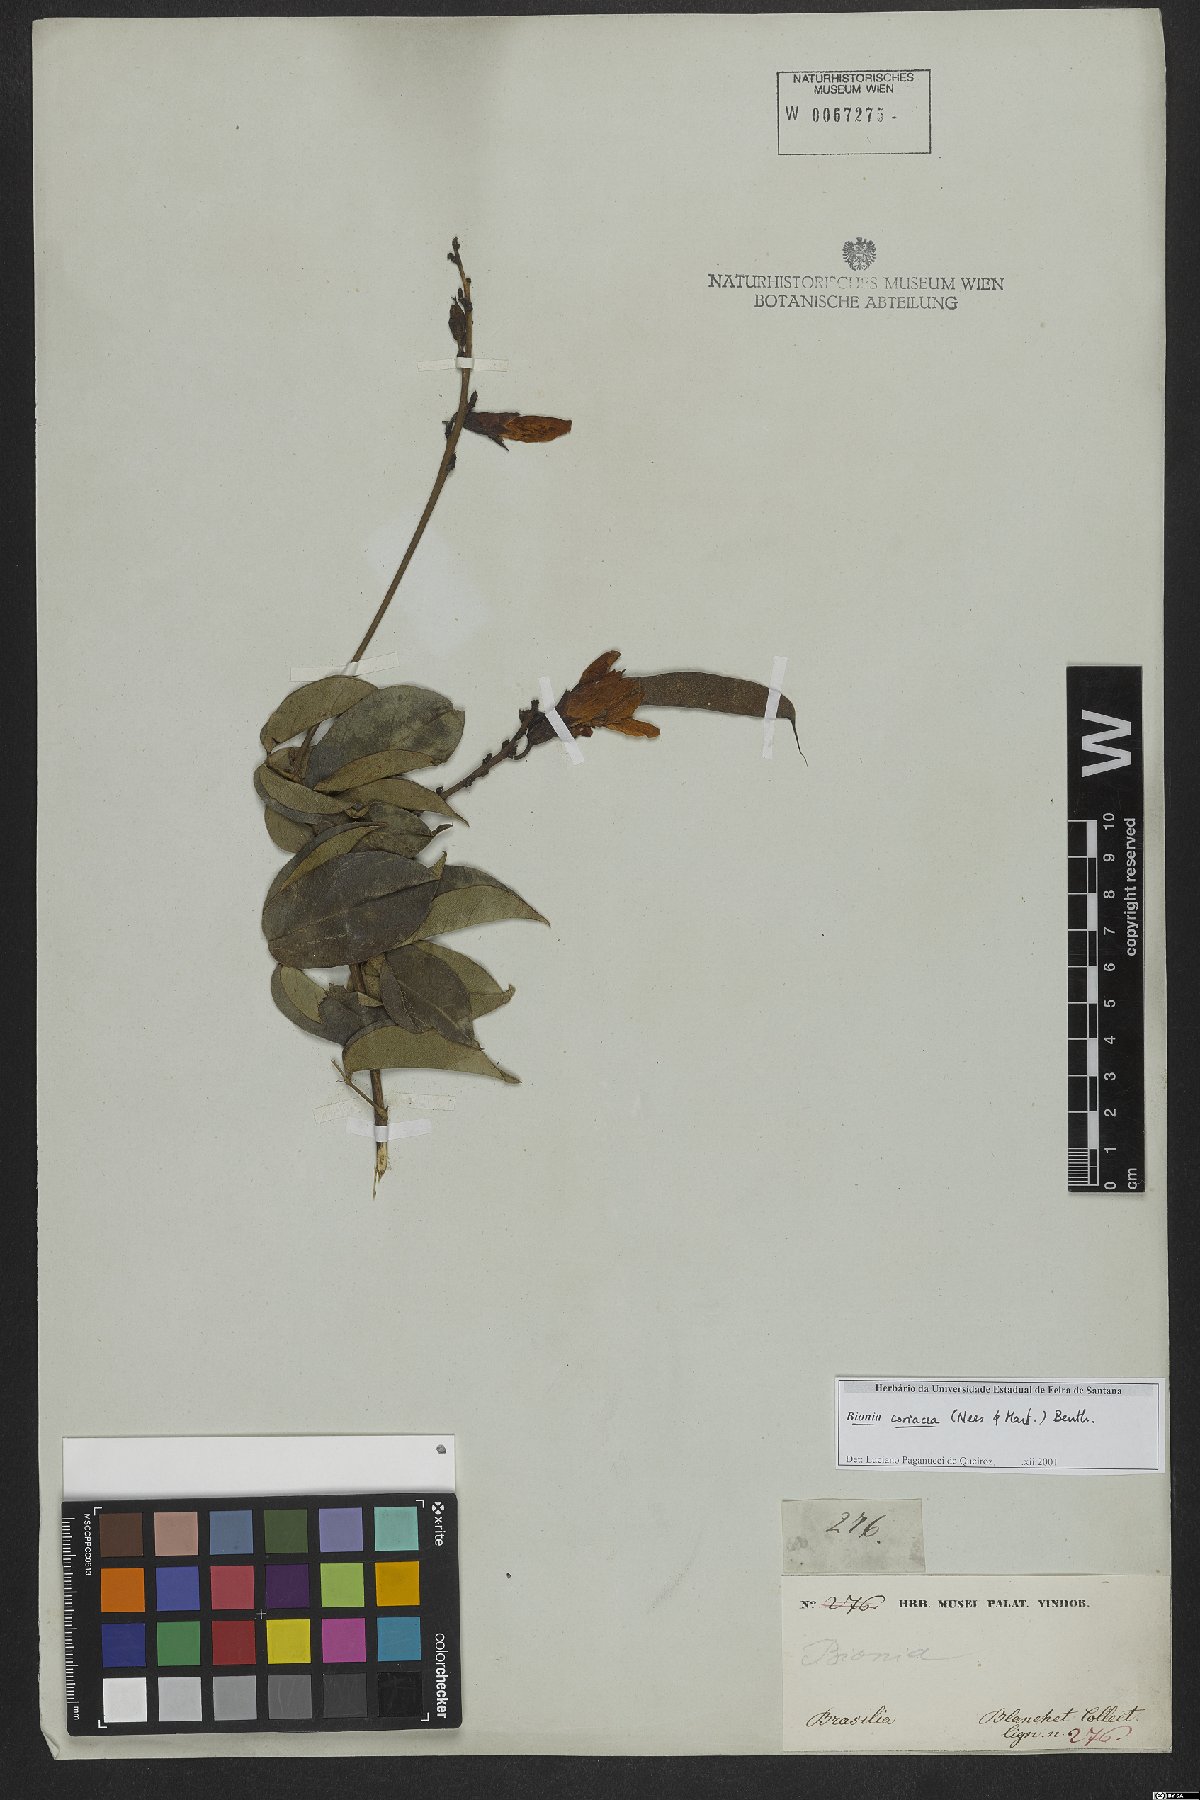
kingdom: Plantae
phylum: Tracheophyta
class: Magnoliopsida
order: Fabales
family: Fabaceae
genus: Camptosema
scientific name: Camptosema coriaceum
